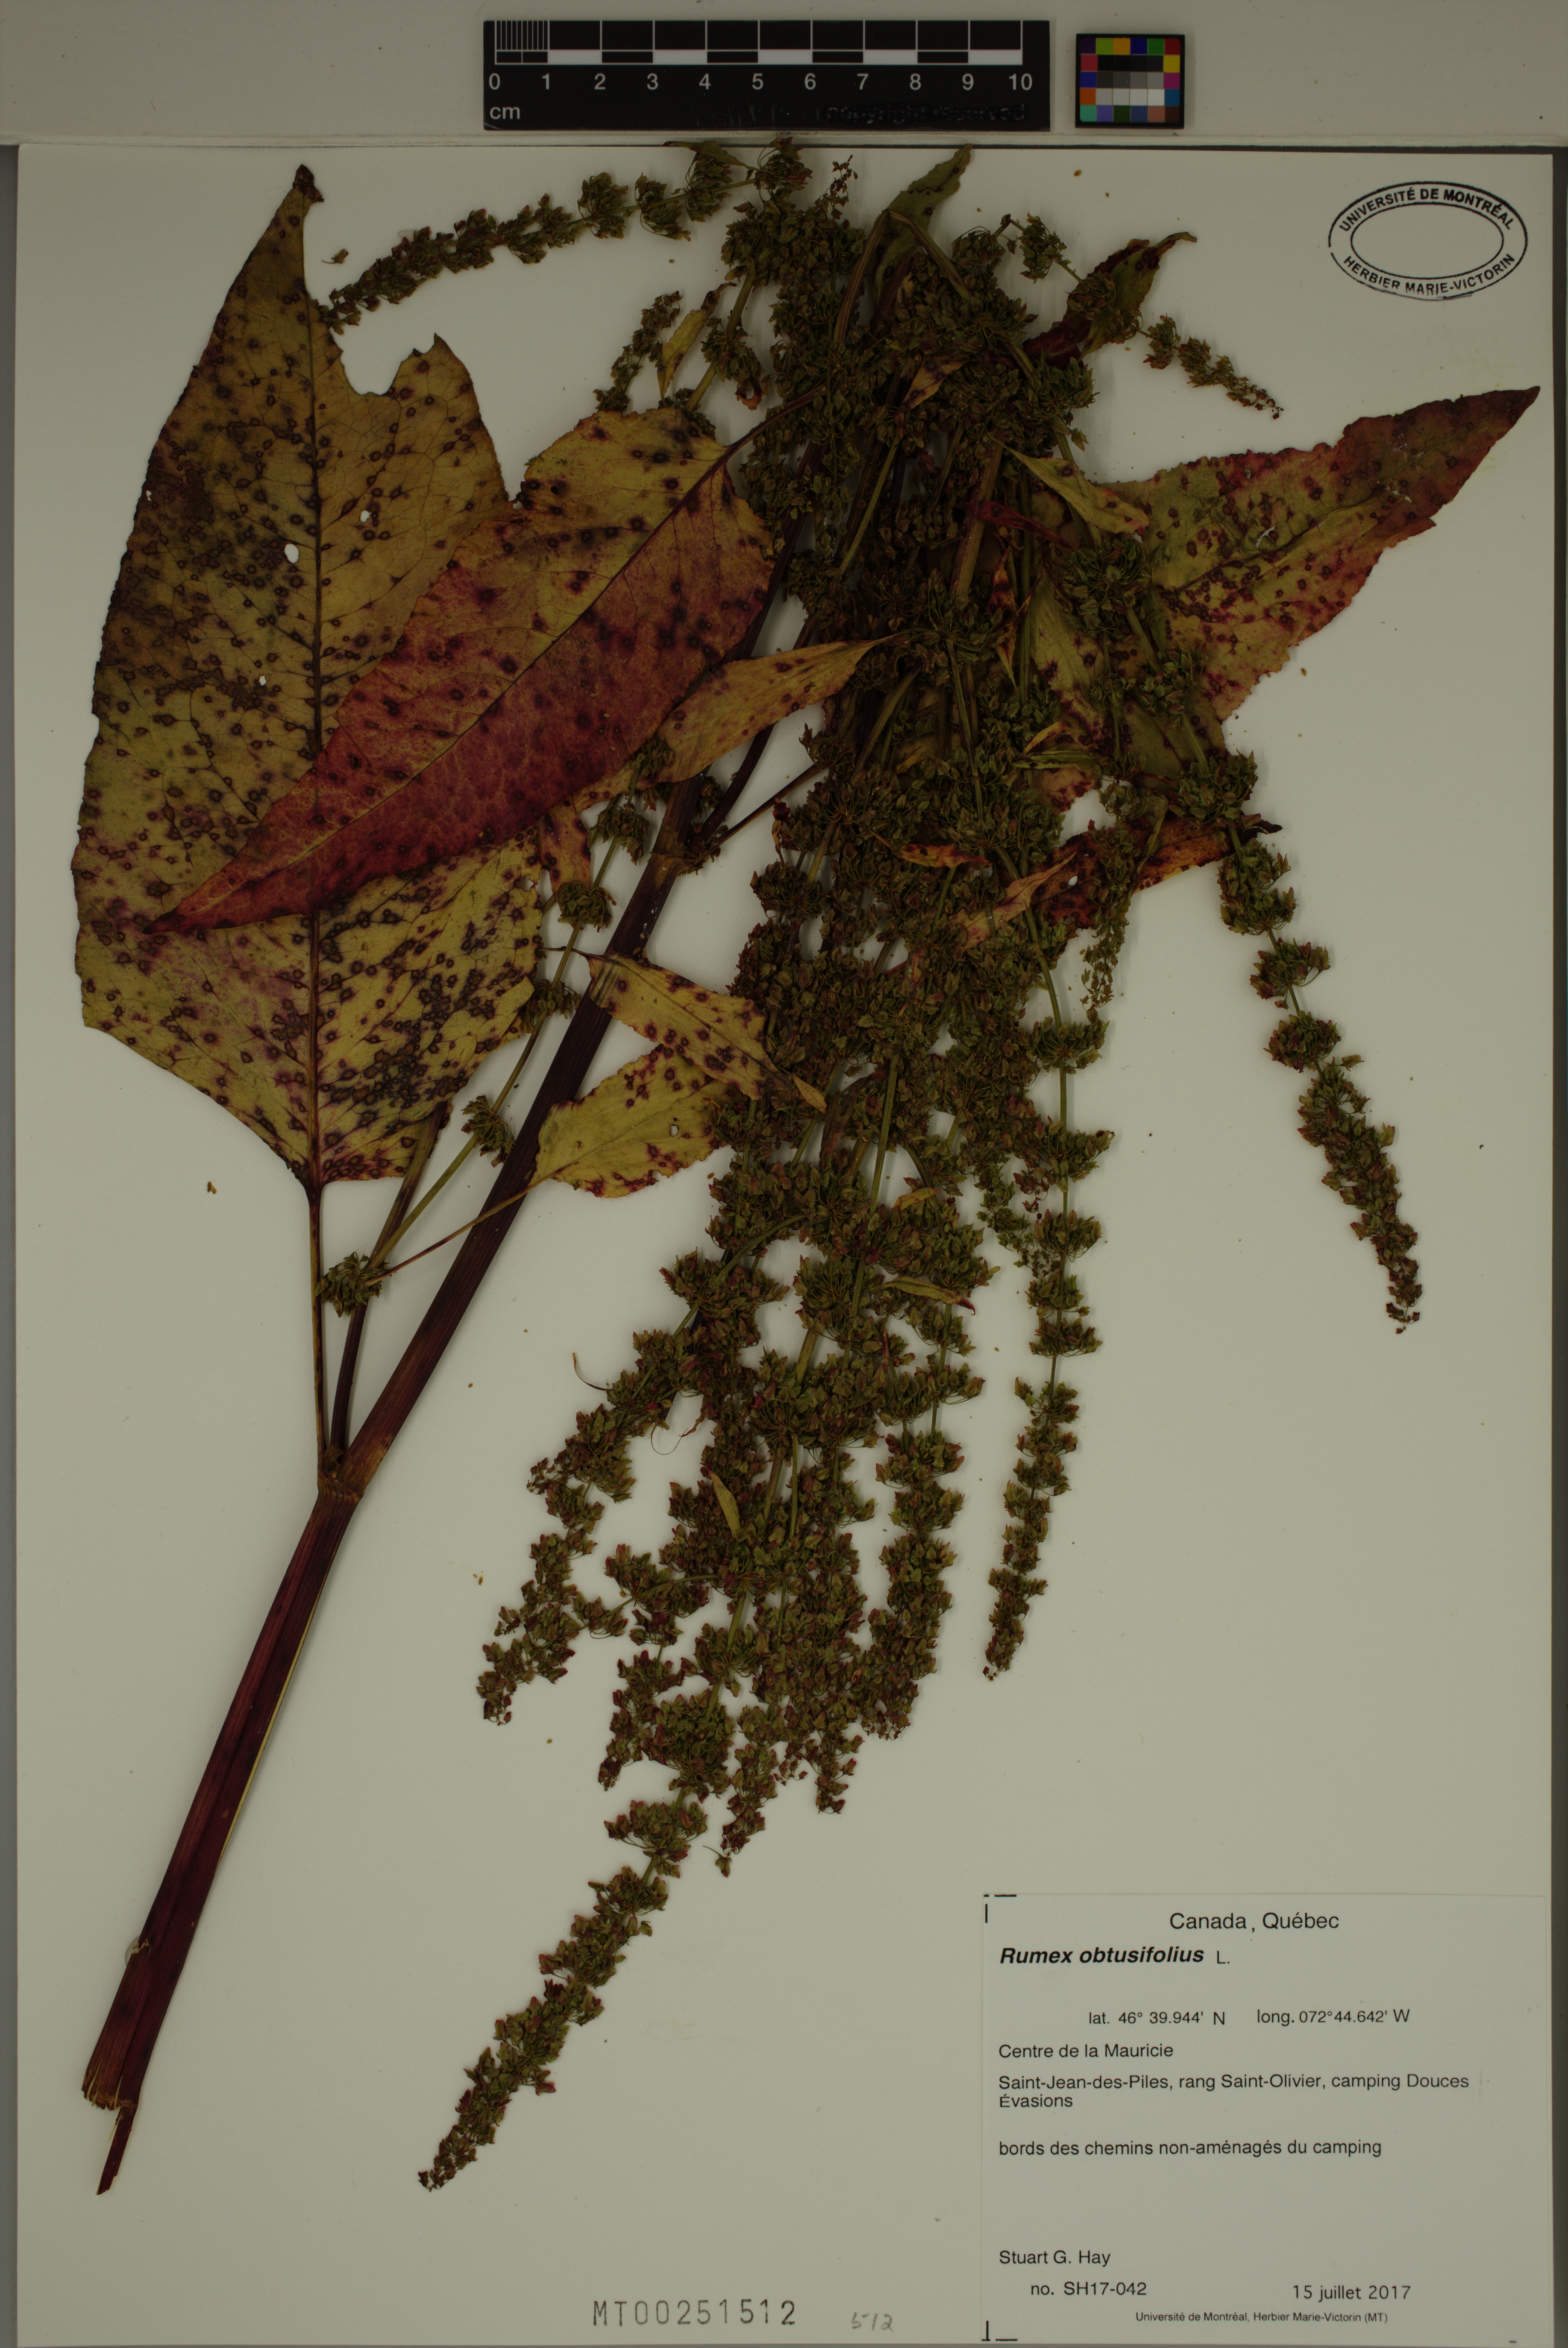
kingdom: Plantae
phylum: Tracheophyta
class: Magnoliopsida
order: Caryophyllales
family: Polygonaceae
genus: Rumex
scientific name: Rumex obtusifolius
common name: Bitter dock
